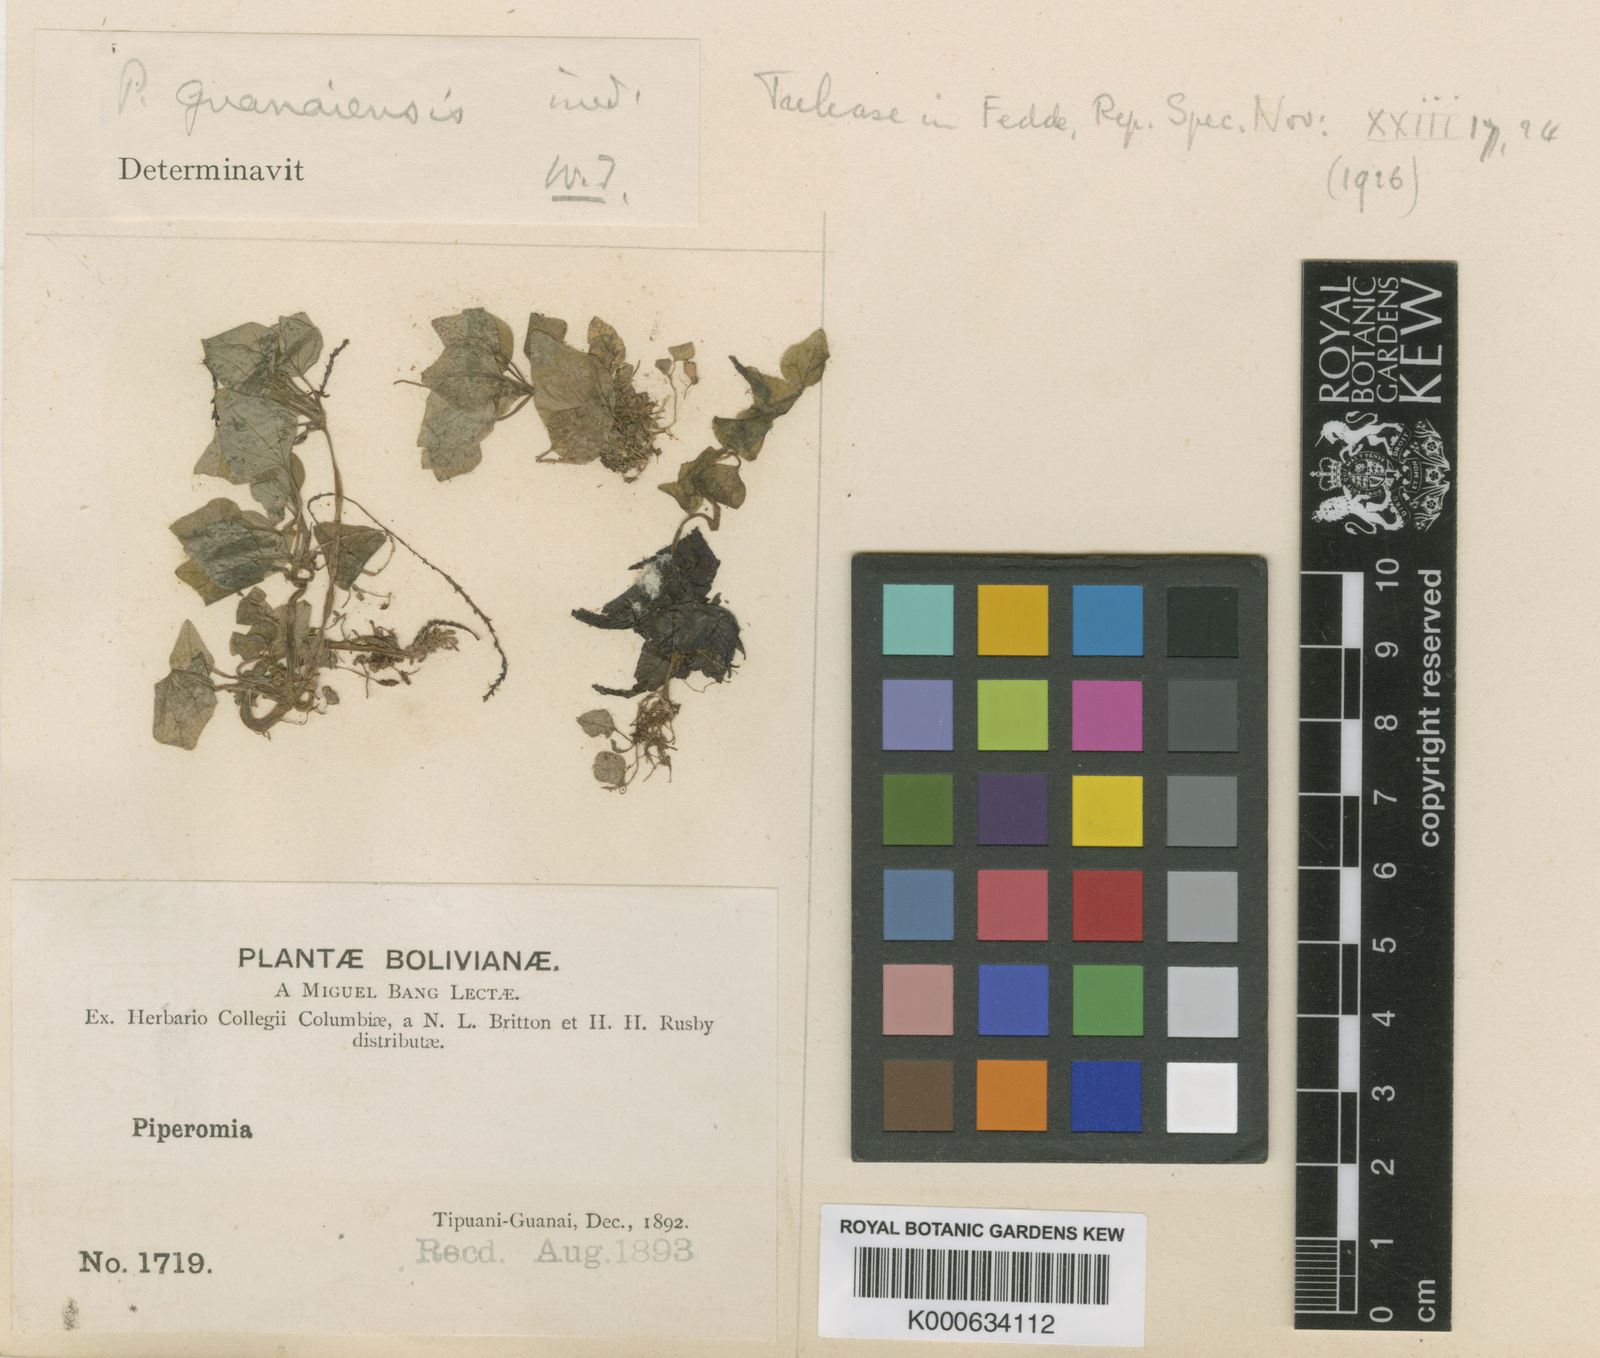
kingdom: Plantae
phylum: Tracheophyta
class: Magnoliopsida
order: Piperales
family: Piperaceae
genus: Peperomia
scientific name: Peperomia guanensis
